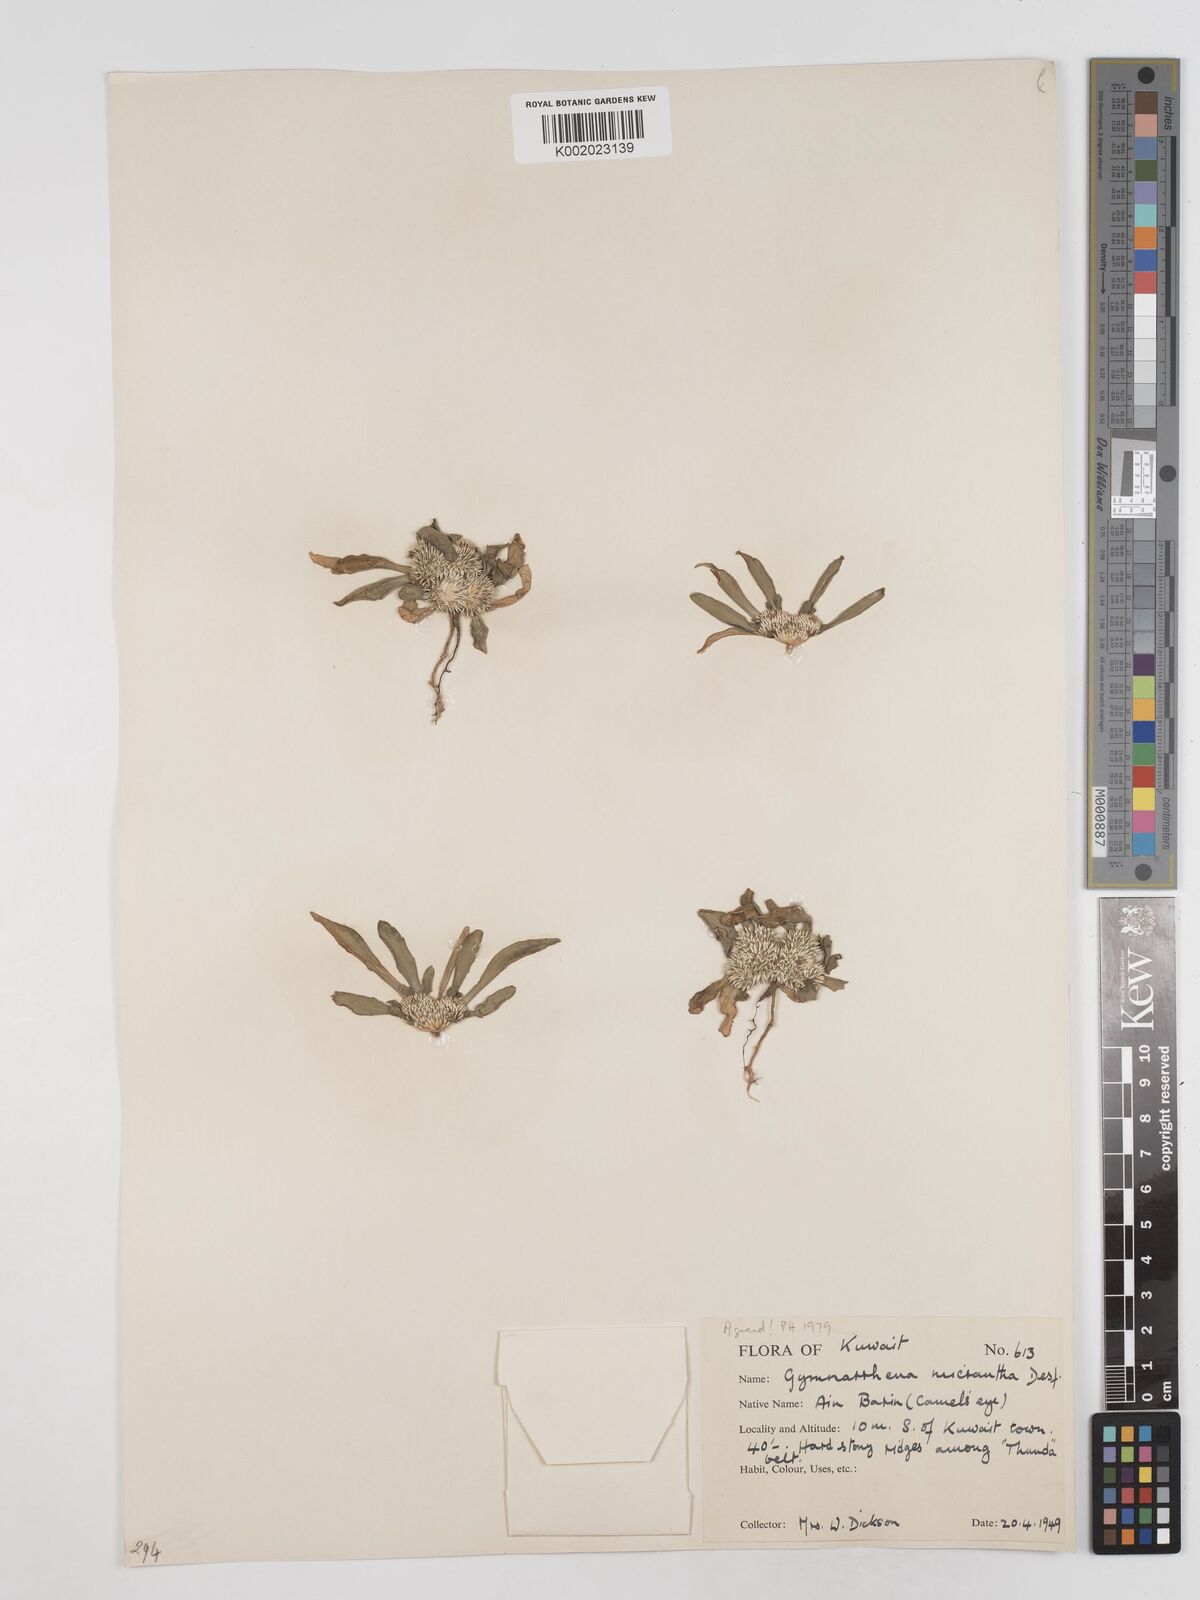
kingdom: Plantae
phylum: Tracheophyta
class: Magnoliopsida
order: Asterales
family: Asteraceae
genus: Gymnarrhena
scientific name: Gymnarrhena micrantha
